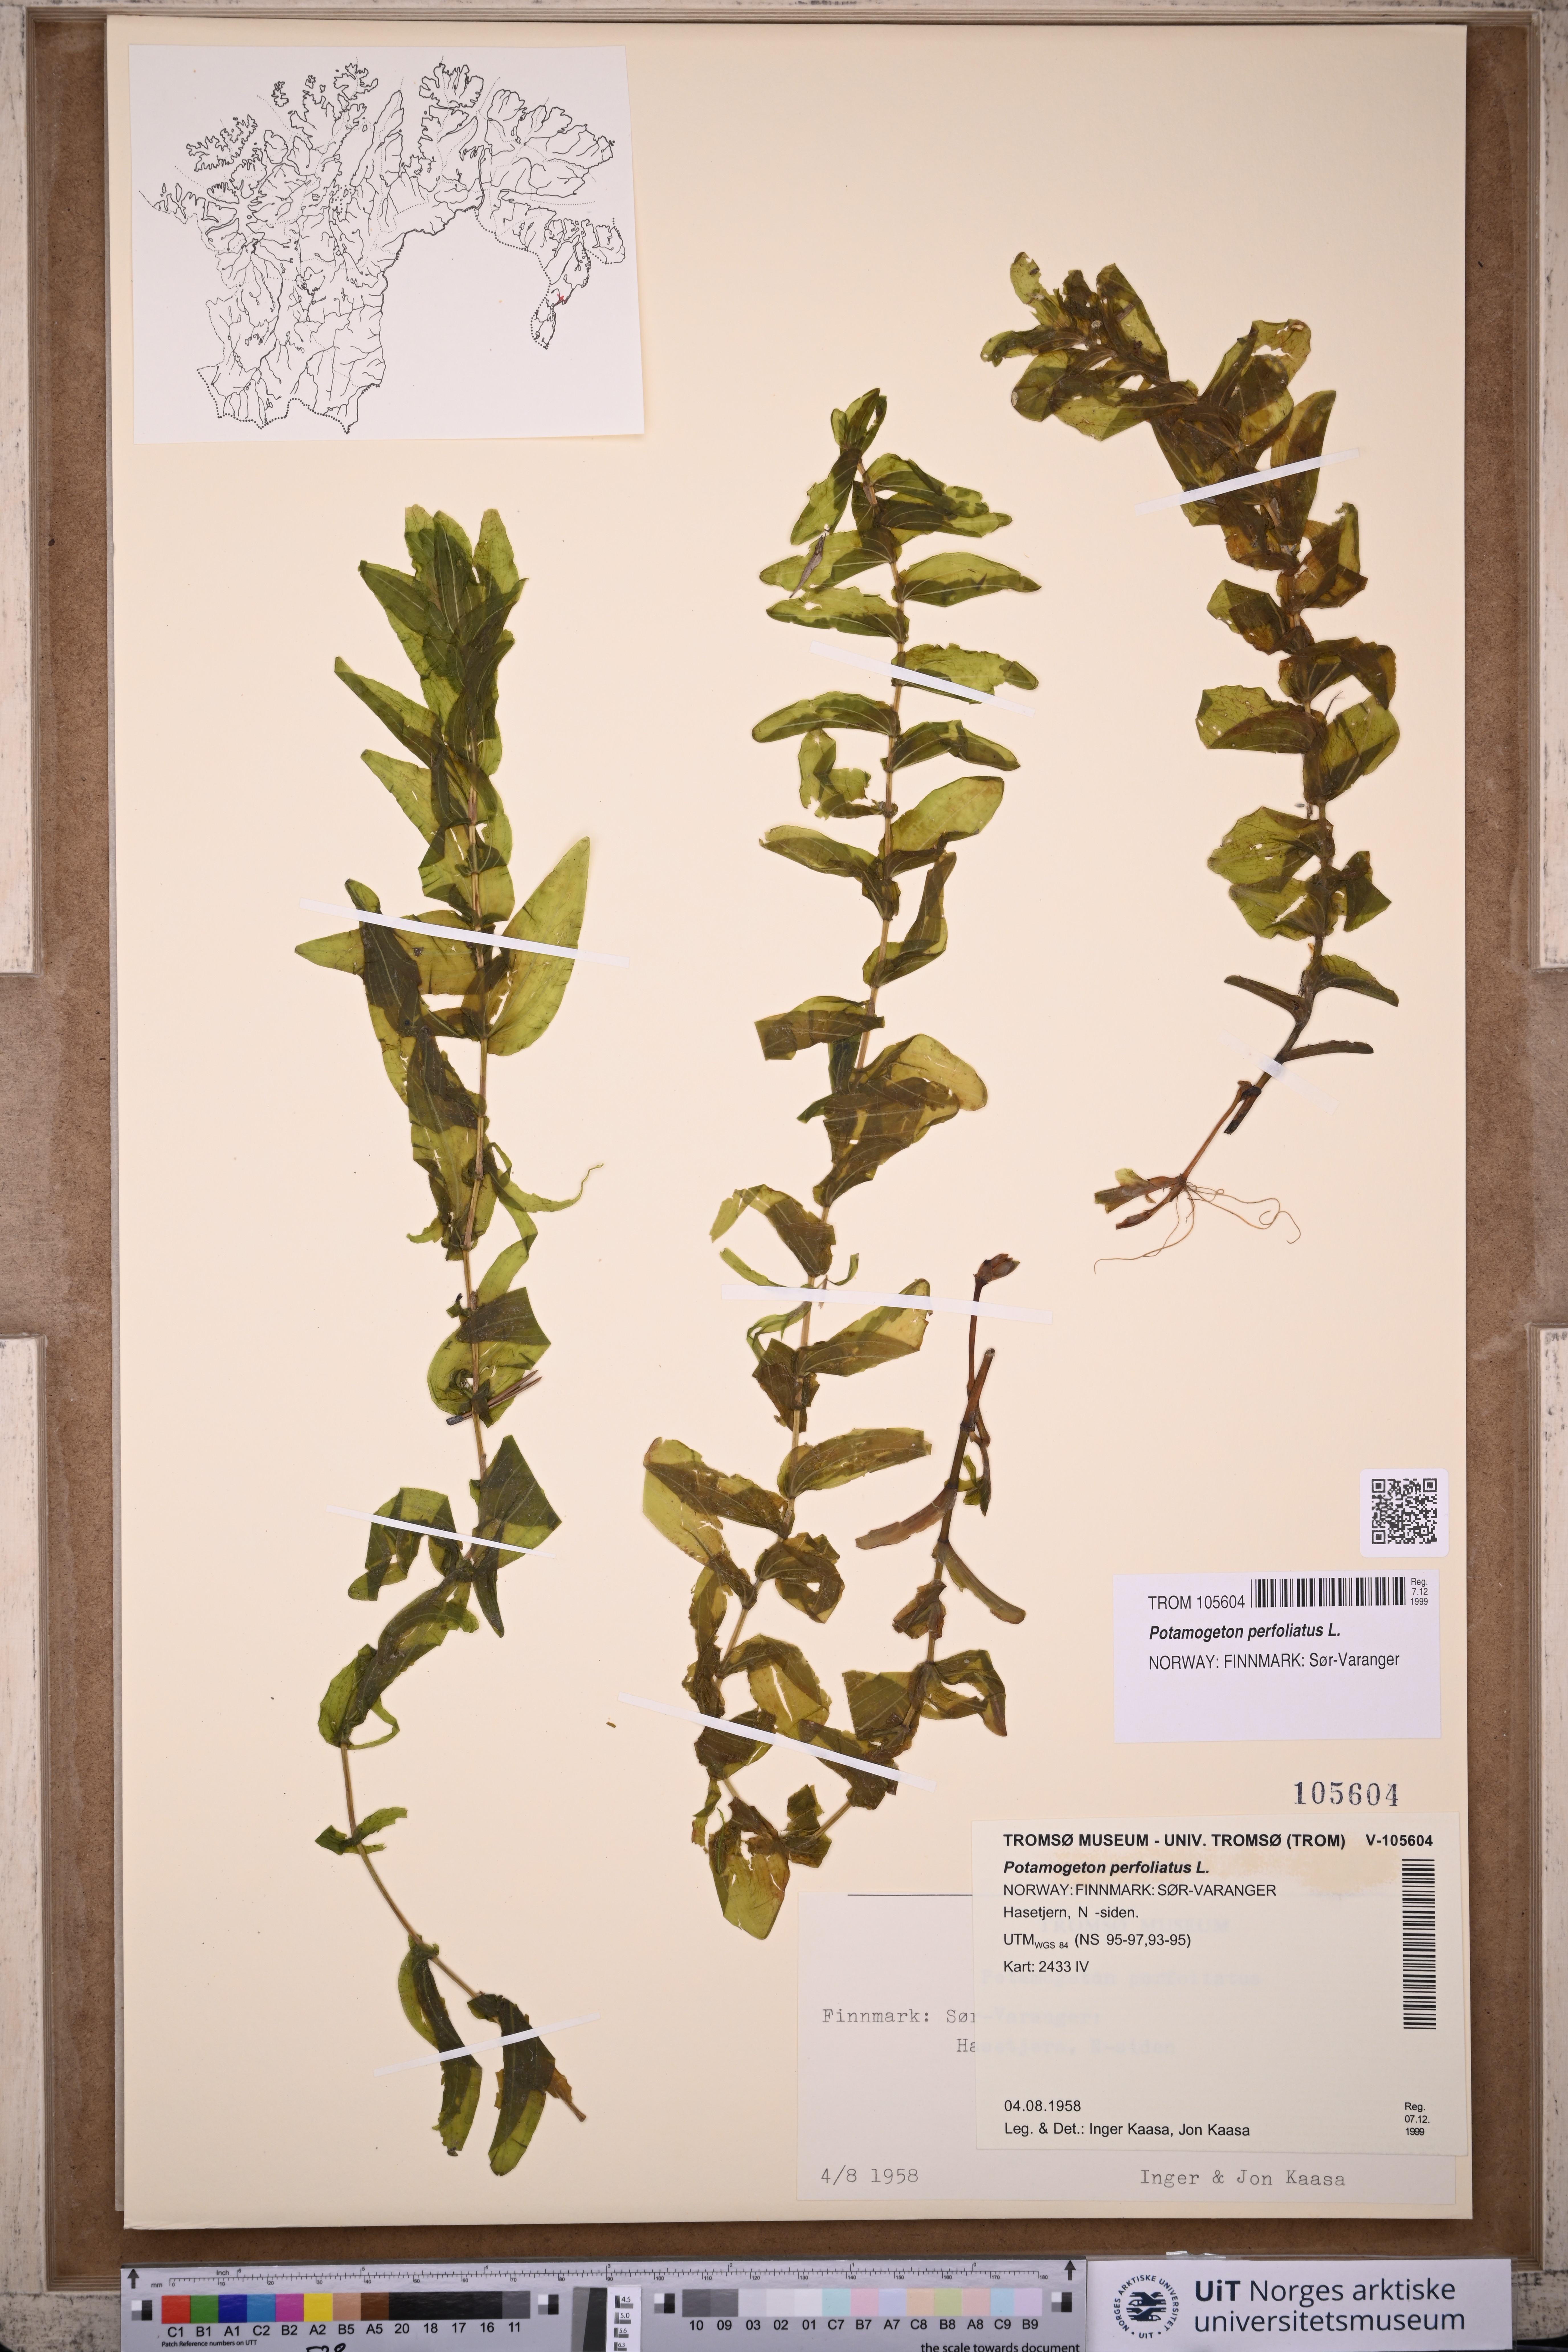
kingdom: Plantae
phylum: Tracheophyta
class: Liliopsida
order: Alismatales
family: Potamogetonaceae
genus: Potamogeton
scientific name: Potamogeton perfoliatus
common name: Perfoliate pondweed
